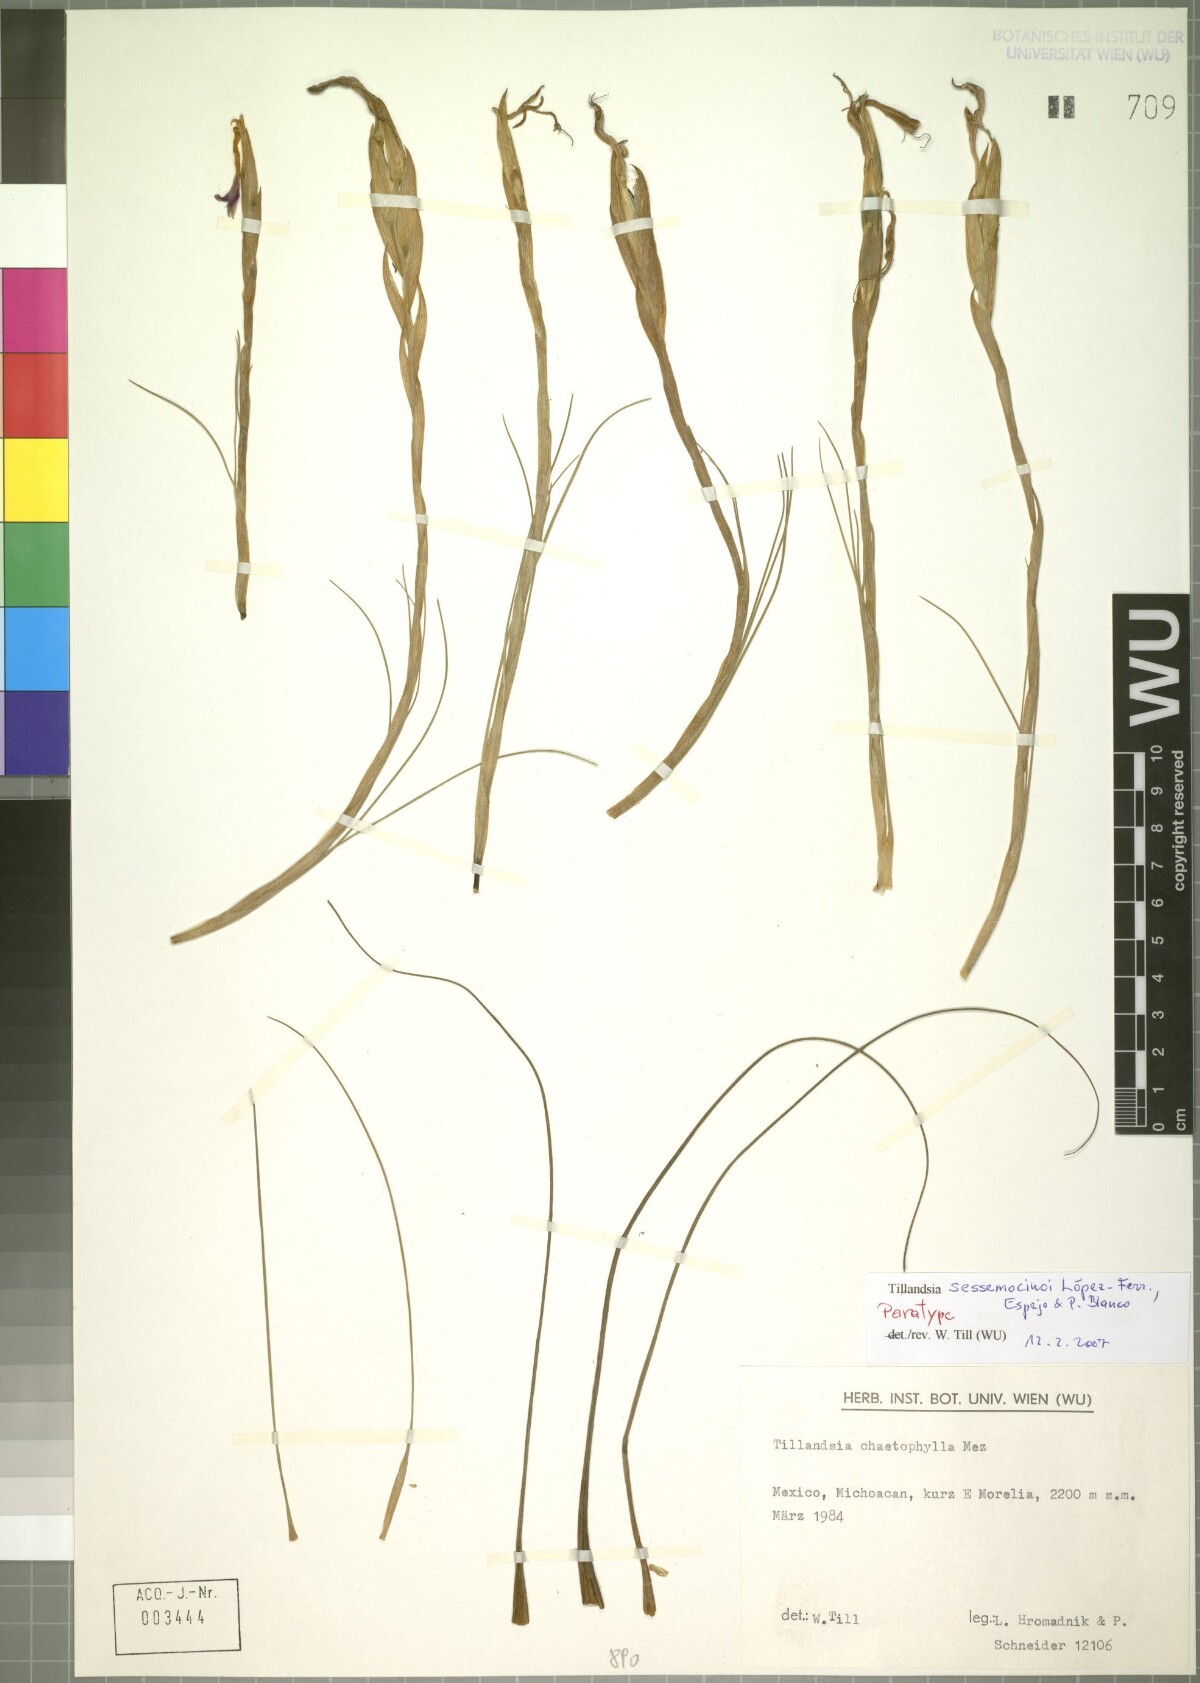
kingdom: Plantae
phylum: Tracheophyta
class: Liliopsida
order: Poales
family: Bromeliaceae
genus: Tillandsia
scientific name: Tillandsia sessemocinoi
